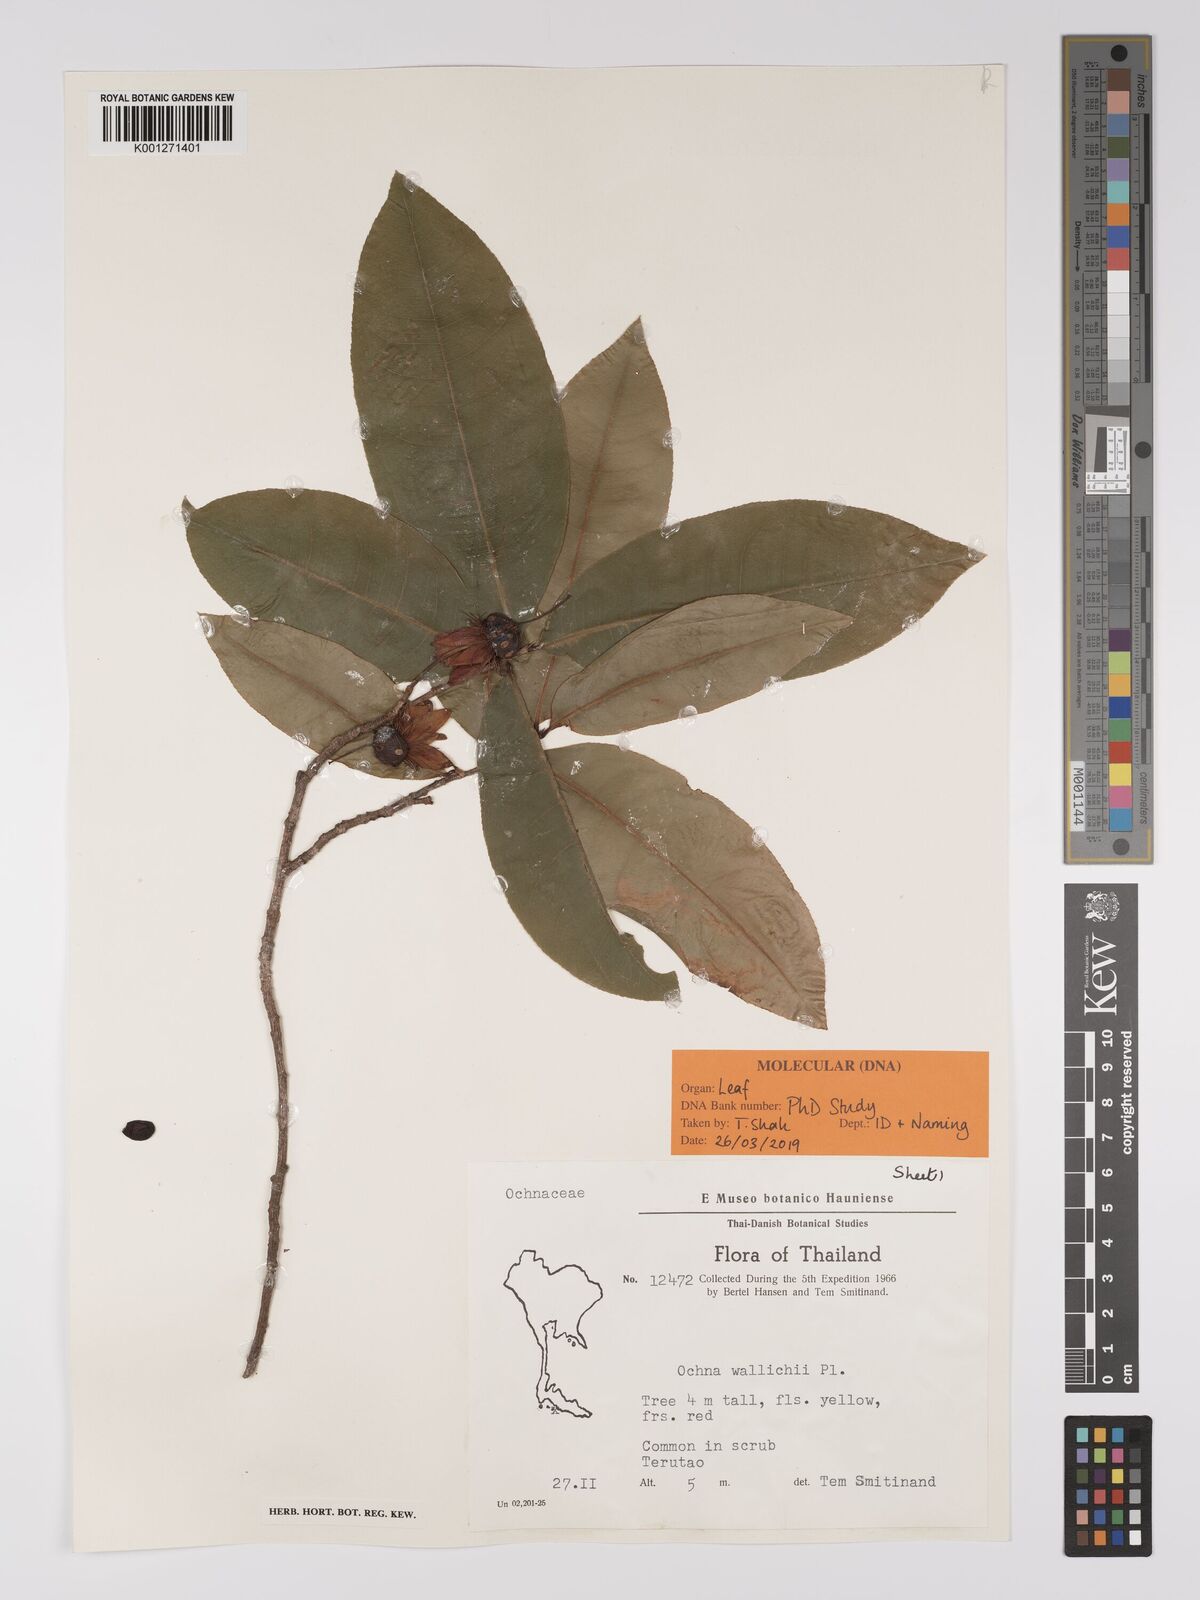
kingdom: Plantae
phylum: Tracheophyta
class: Magnoliopsida
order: Malpighiales
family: Ochnaceae
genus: Ochna
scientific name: Ochna integerrima
